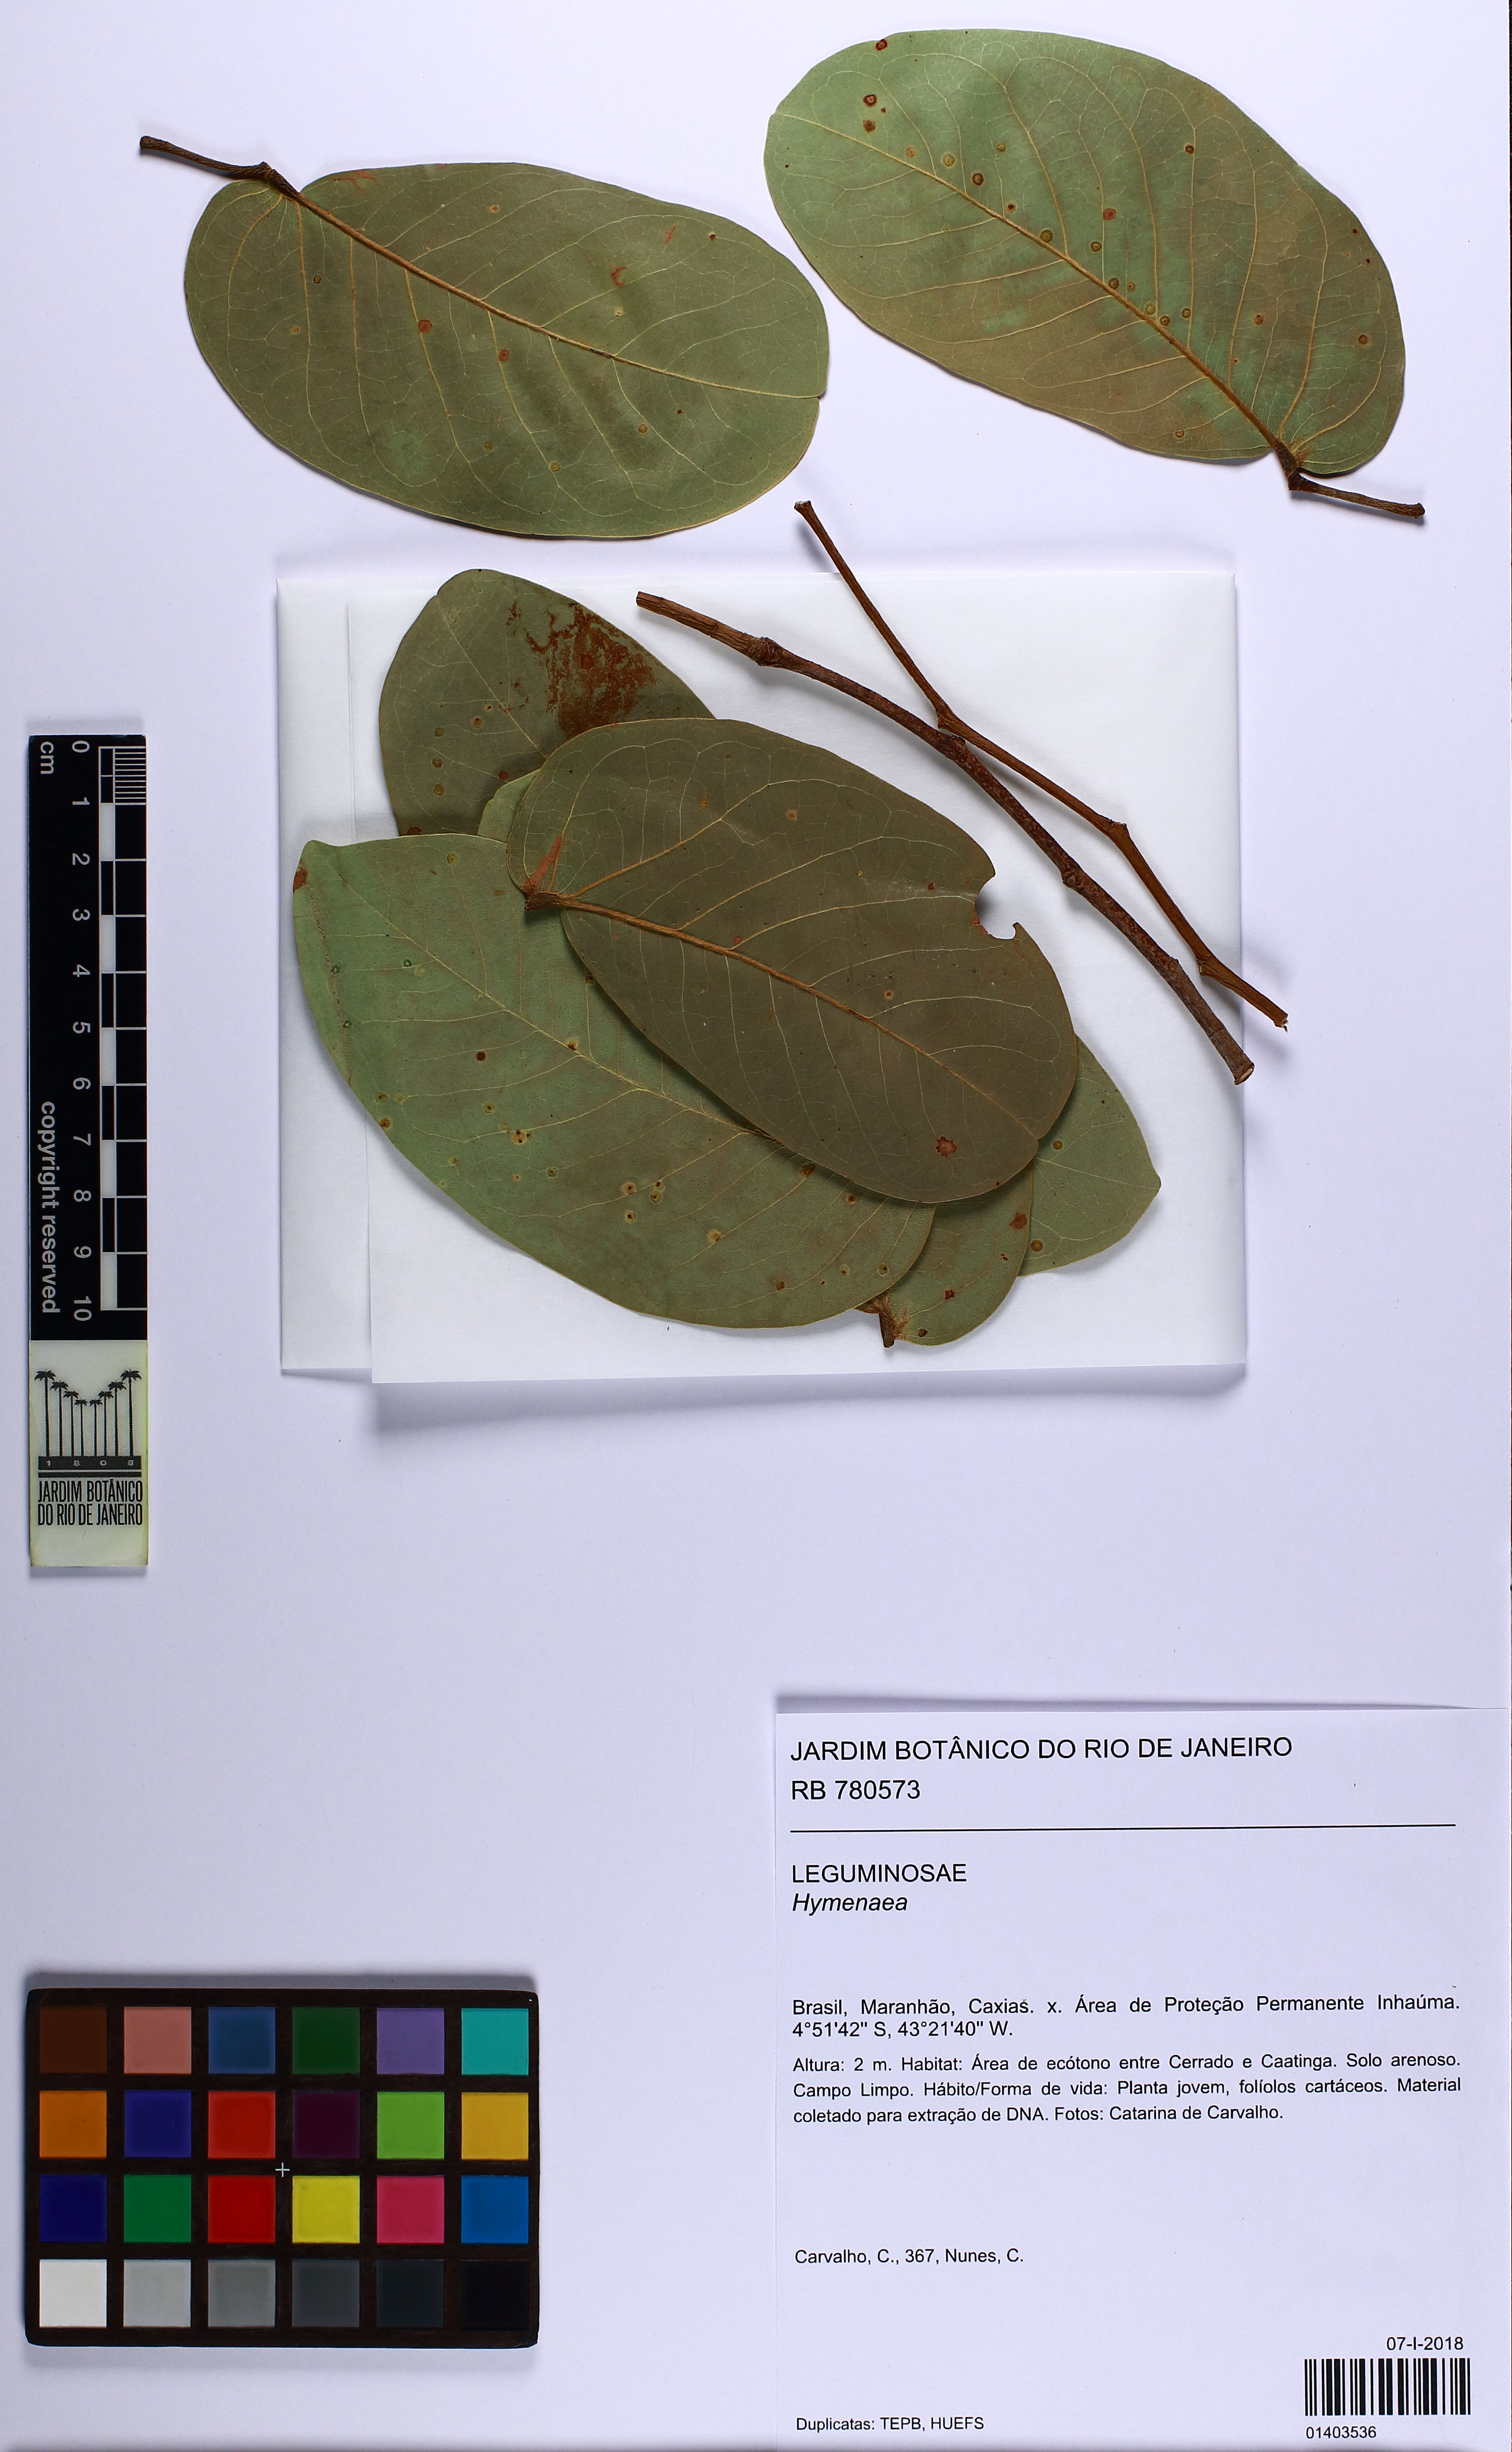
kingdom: Plantae
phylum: Tracheophyta
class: Magnoliopsida
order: Fabales
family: Fabaceae
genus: Hymenaea
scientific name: Hymenaea stigonocarpa
